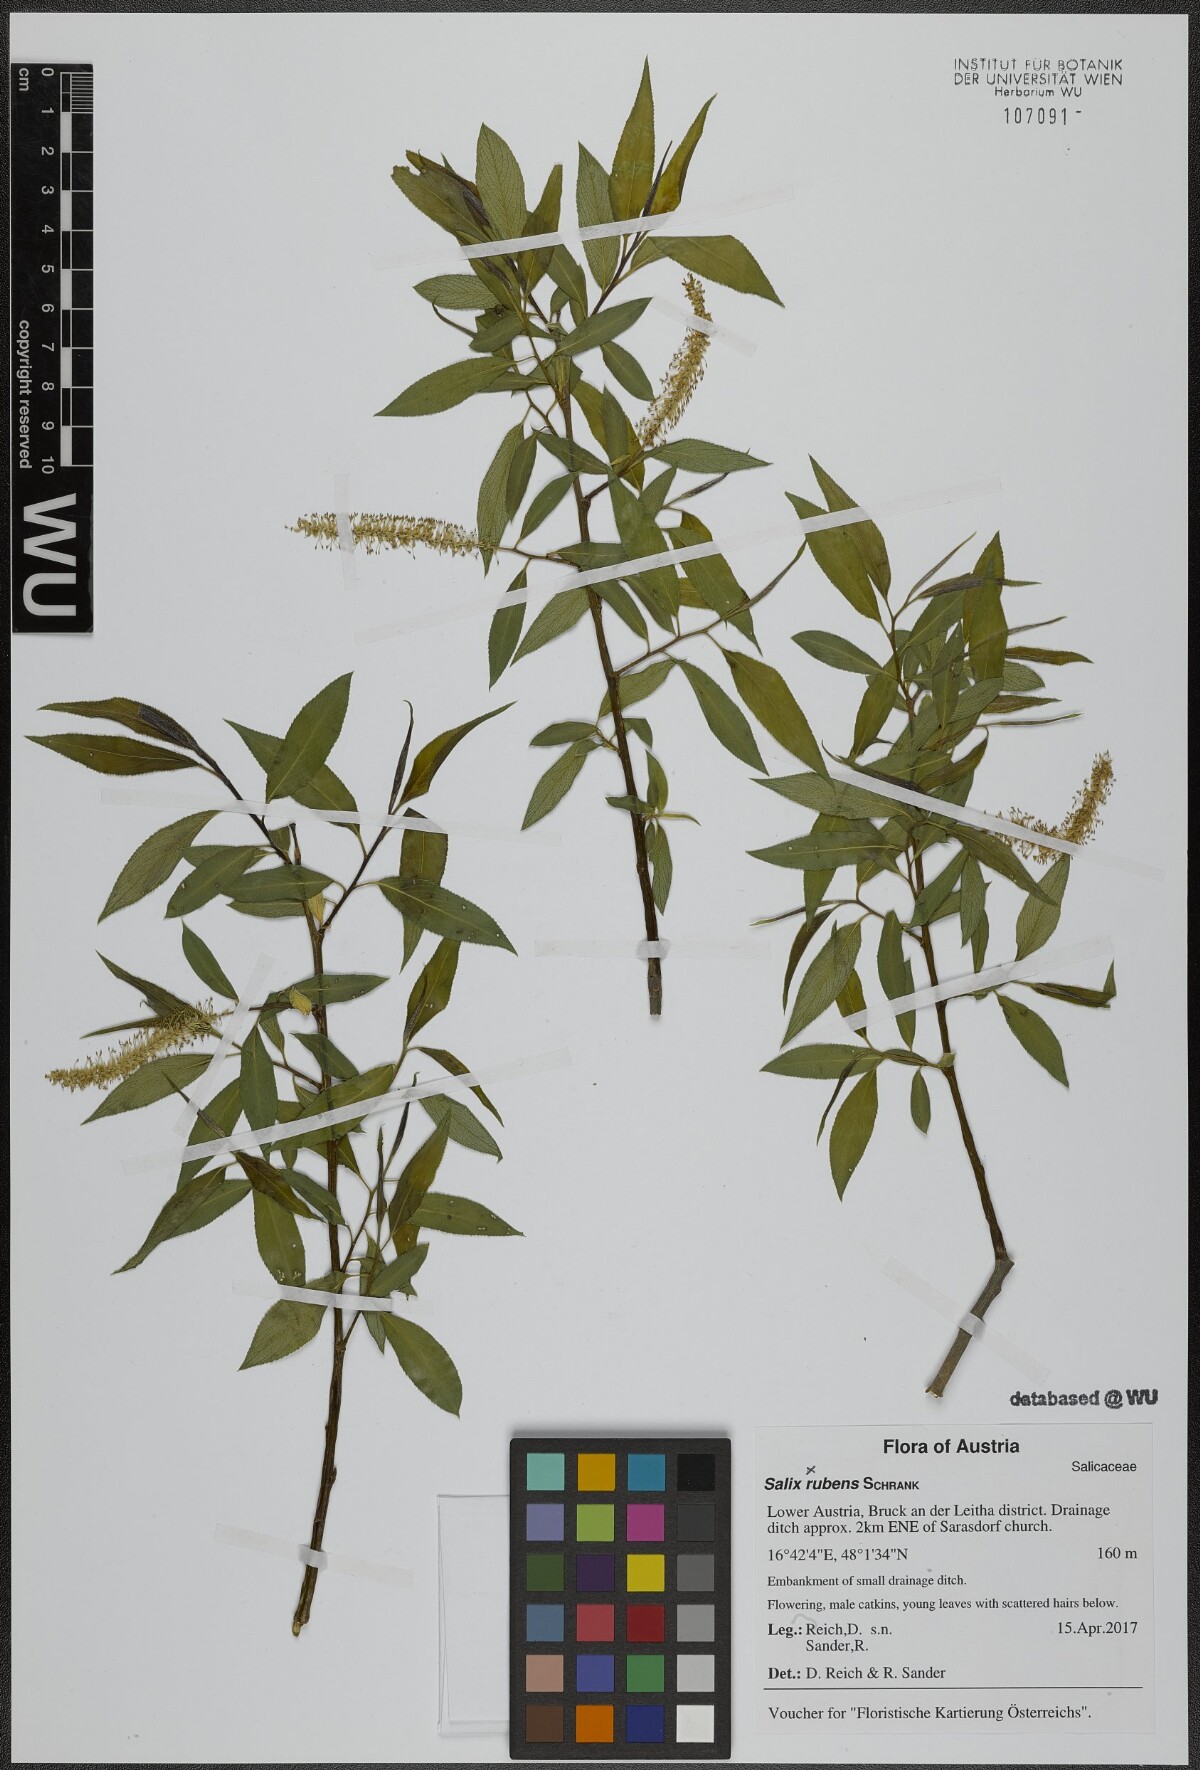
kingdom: Plantae
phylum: Tracheophyta
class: Magnoliopsida
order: Malpighiales
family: Salicaceae
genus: Salix
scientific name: Salix rubens
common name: Hybrid crack willow
